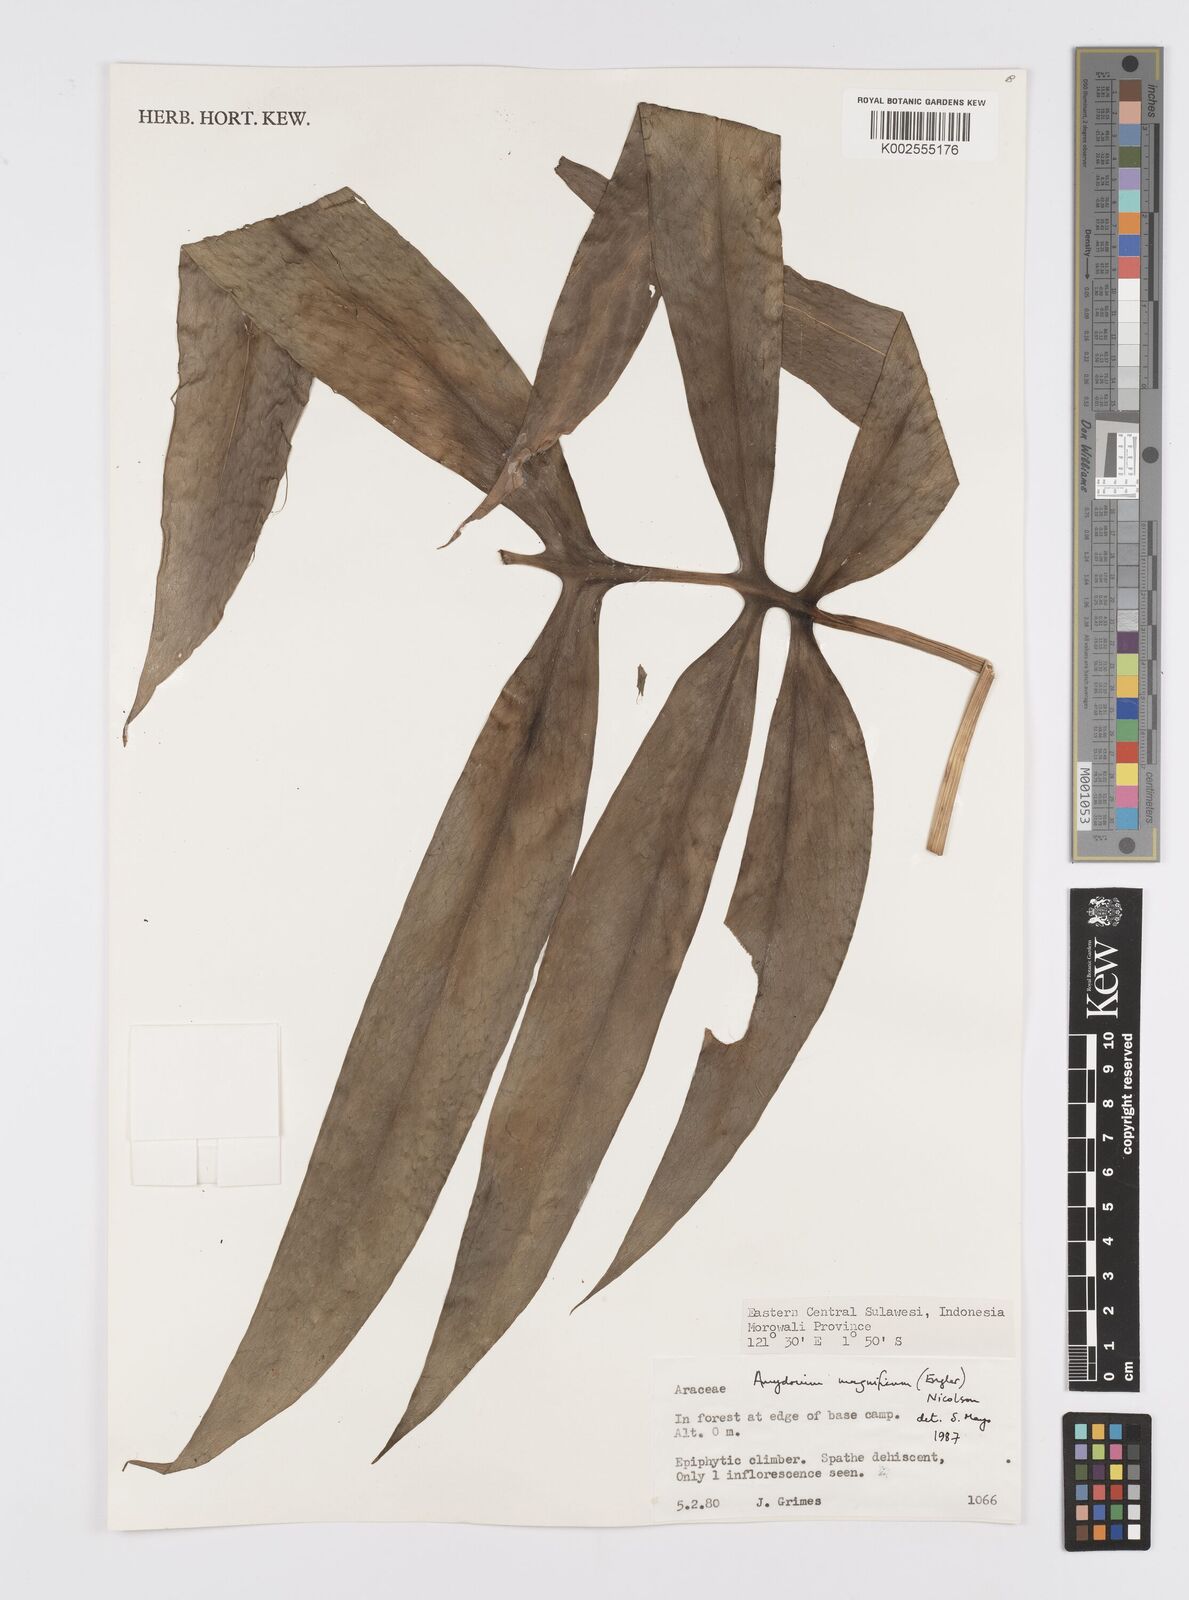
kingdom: Plantae
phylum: Tracheophyta
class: Liliopsida
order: Alismatales
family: Araceae
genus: Amydrium
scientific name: Amydrium zippelianum
